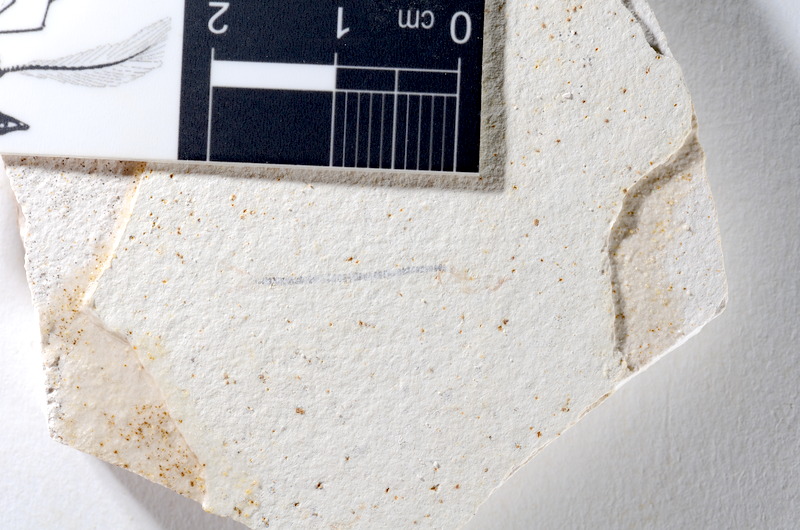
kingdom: Animalia
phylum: Chordata
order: Salmoniformes
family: Orthogonikleithridae
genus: Orthogonikleithrus
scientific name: Orthogonikleithrus hoelli
